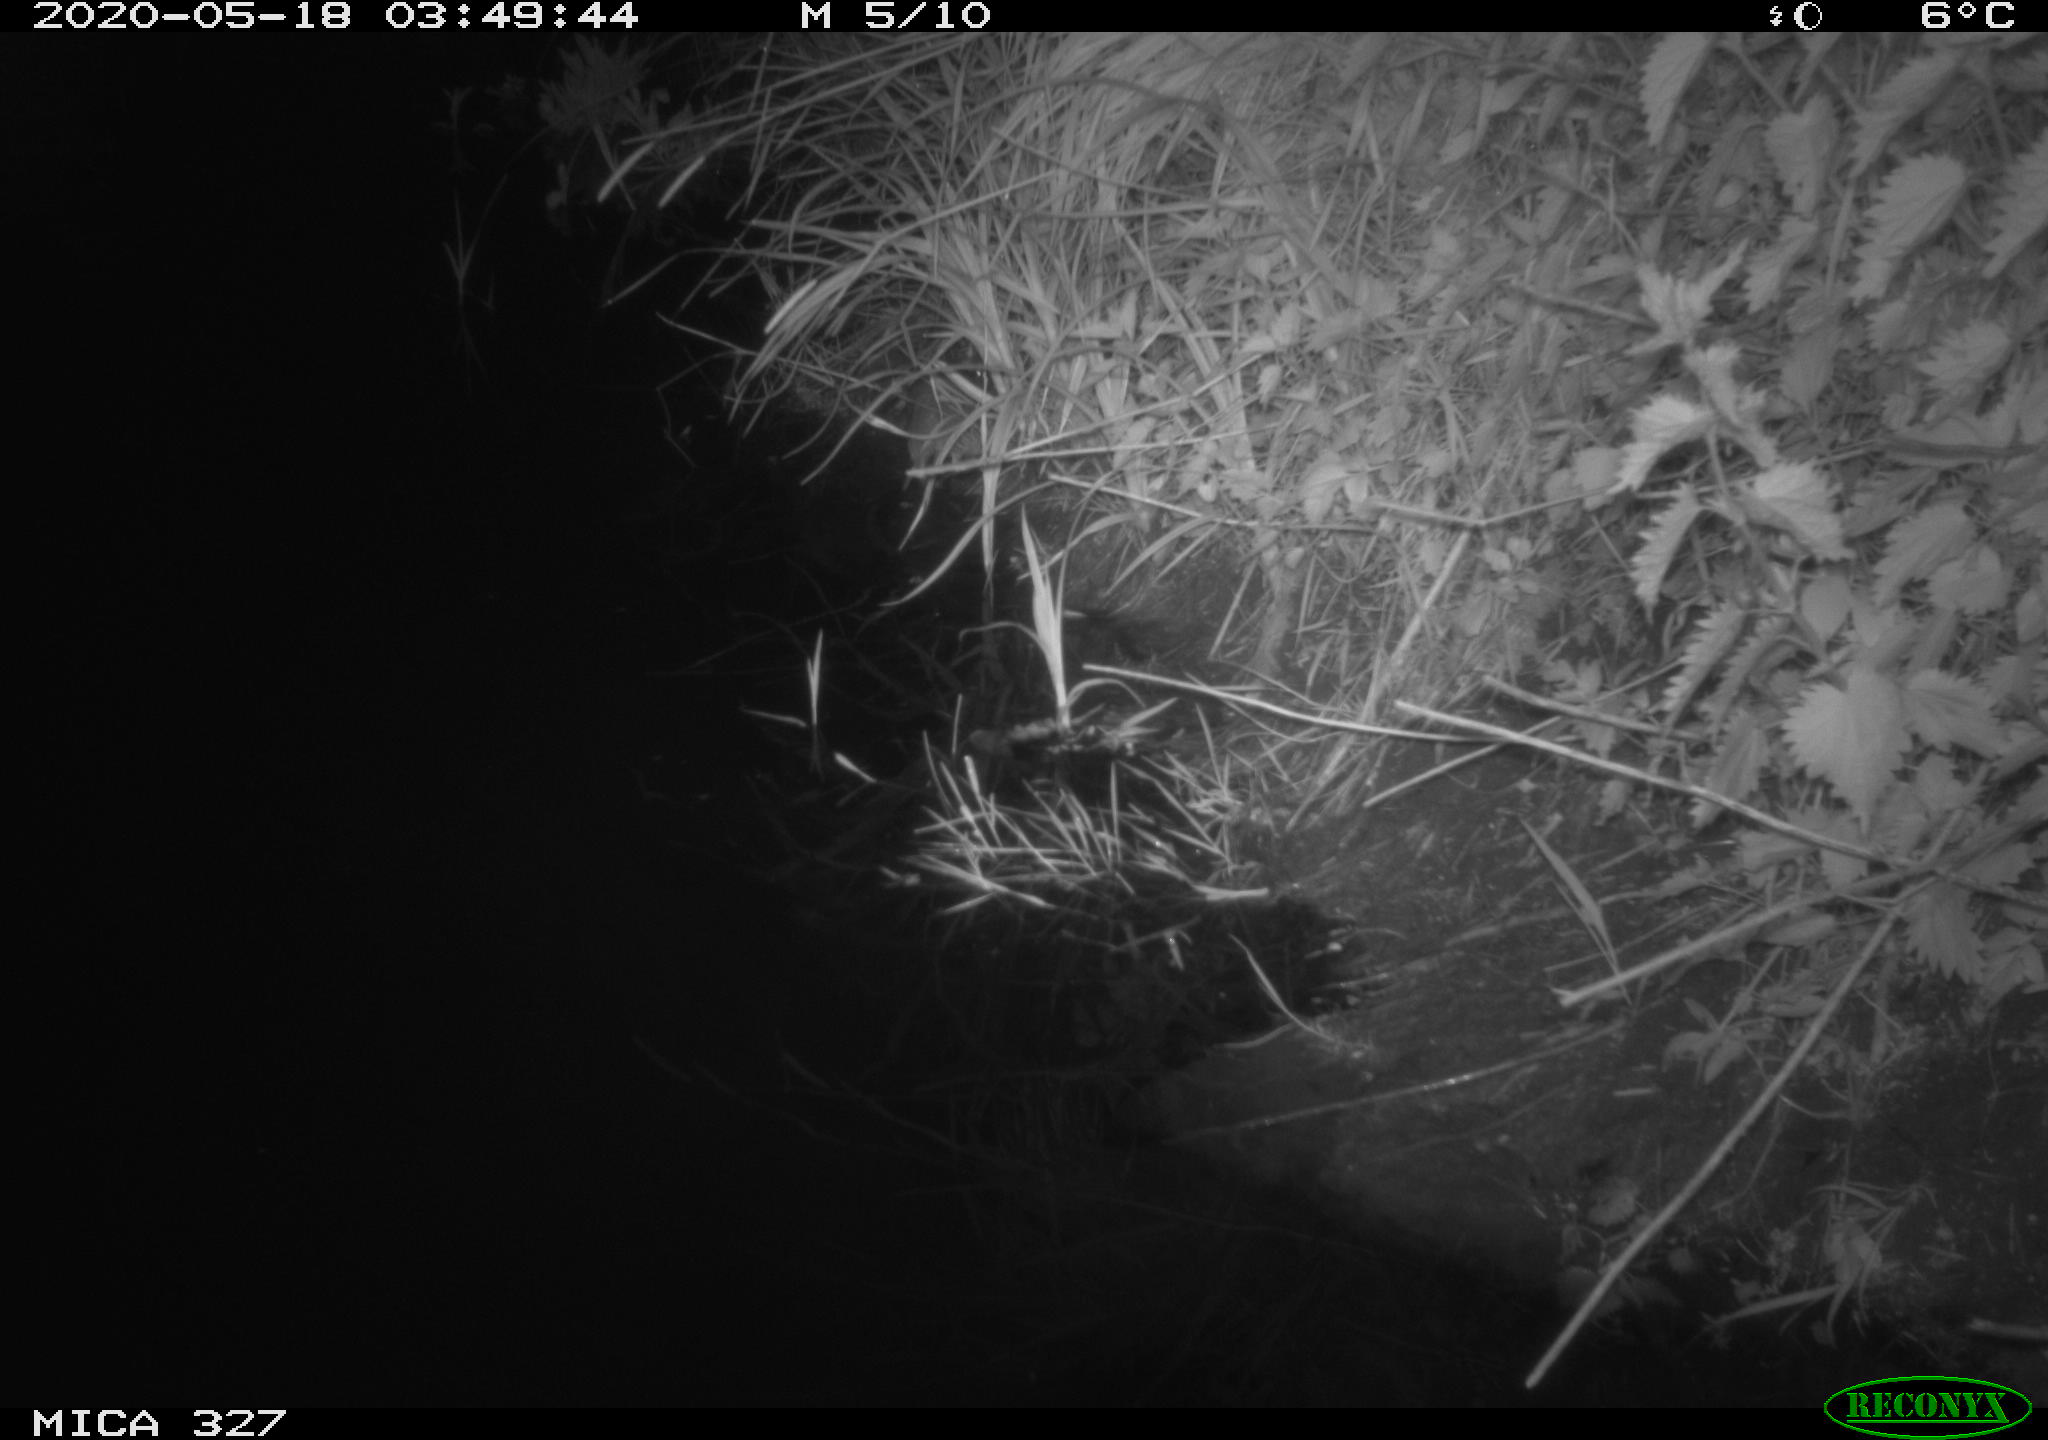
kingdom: Animalia
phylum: Chordata
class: Mammalia
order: Rodentia
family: Muridae
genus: Rattus
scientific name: Rattus norvegicus
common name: Brown rat
